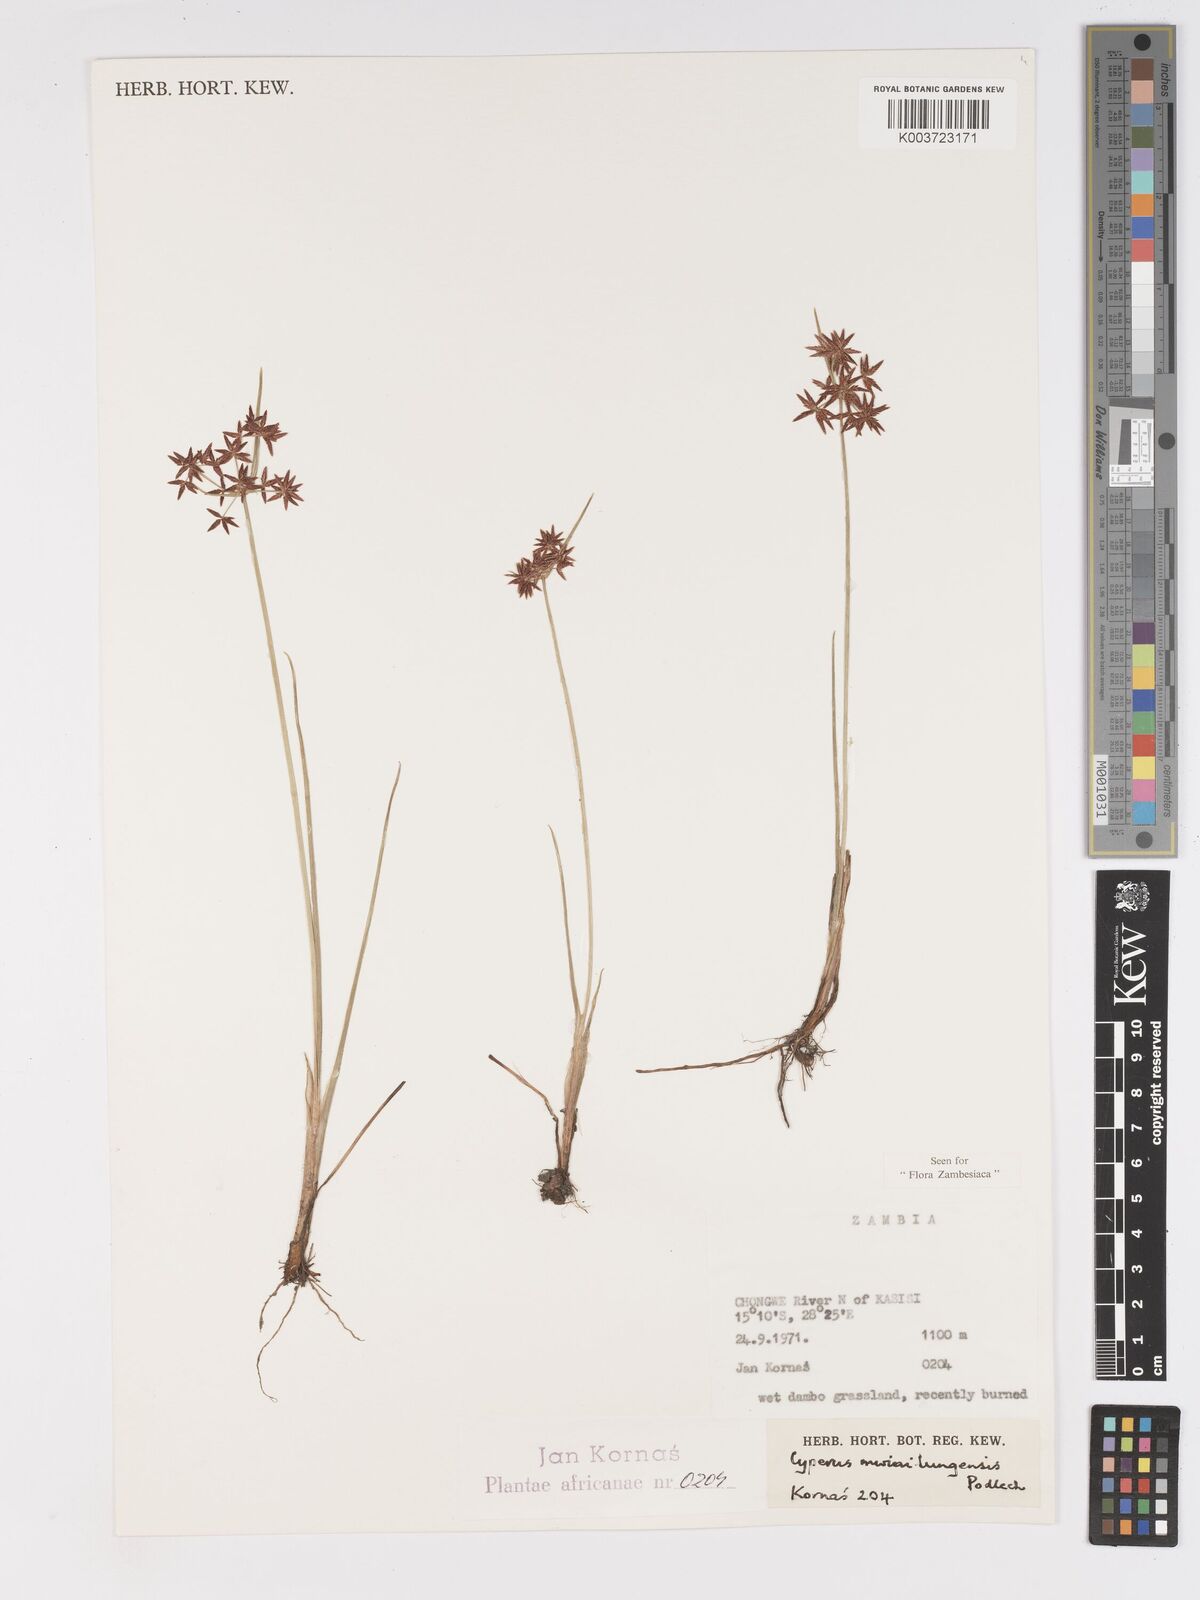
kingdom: Plantae
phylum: Tracheophyta
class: Liliopsida
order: Poales
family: Cyperaceae
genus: Cyperus
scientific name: Cyperus mwinilungensis
